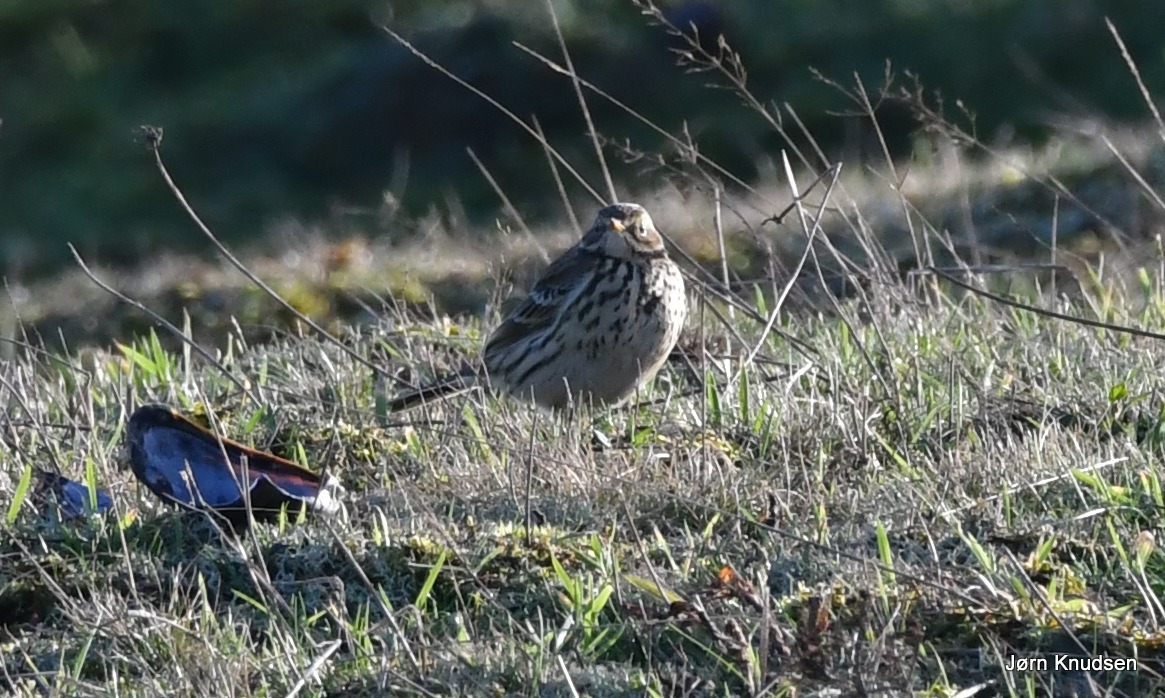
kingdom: Animalia
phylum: Chordata
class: Aves
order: Passeriformes
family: Motacillidae
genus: Anthus
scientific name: Anthus pratensis
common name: Engpiber
